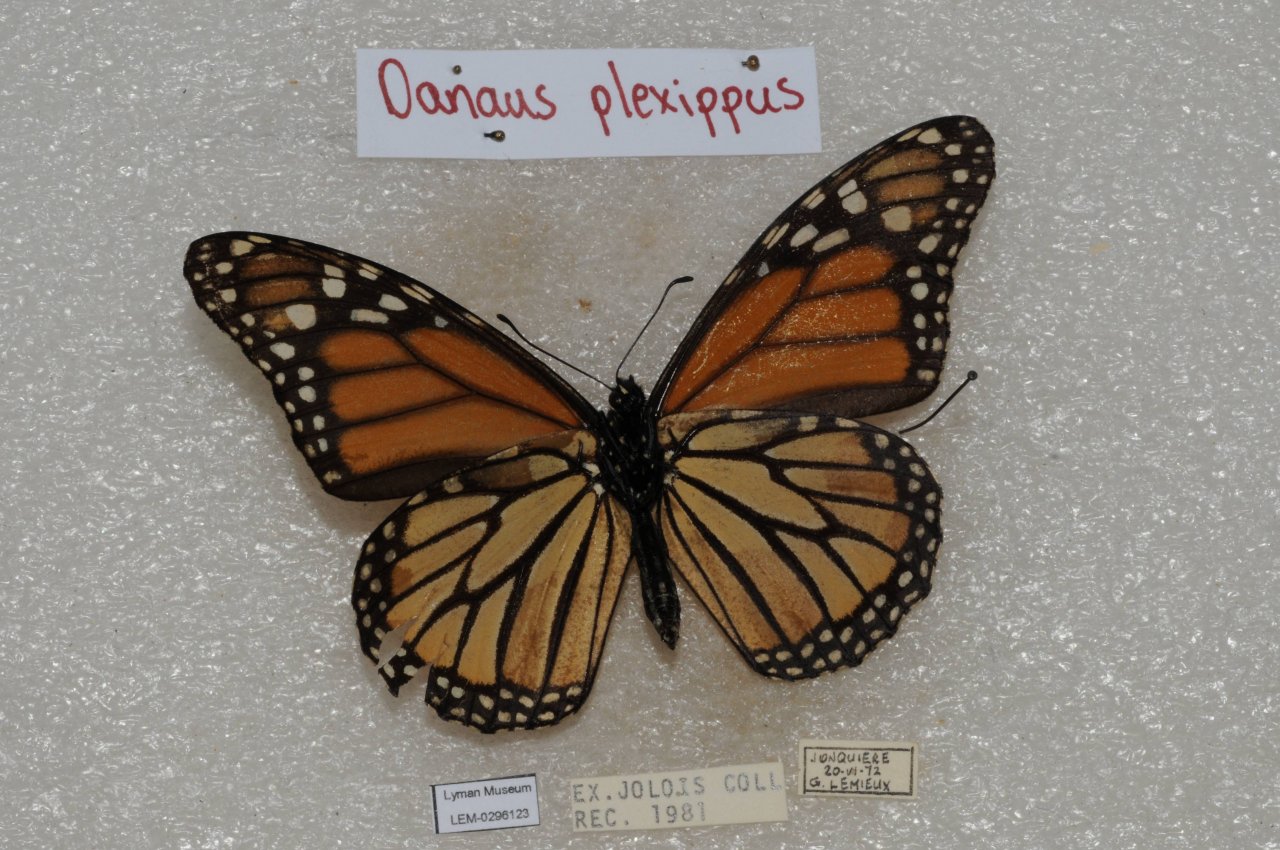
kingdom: Animalia
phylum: Arthropoda
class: Insecta
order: Lepidoptera
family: Nymphalidae
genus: Danaus
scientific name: Danaus plexippus
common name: Monarch
